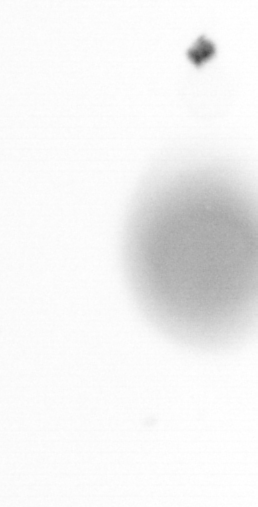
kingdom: Chromista
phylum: Ochrophyta
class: Bacillariophyceae
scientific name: Bacillariophyceae
